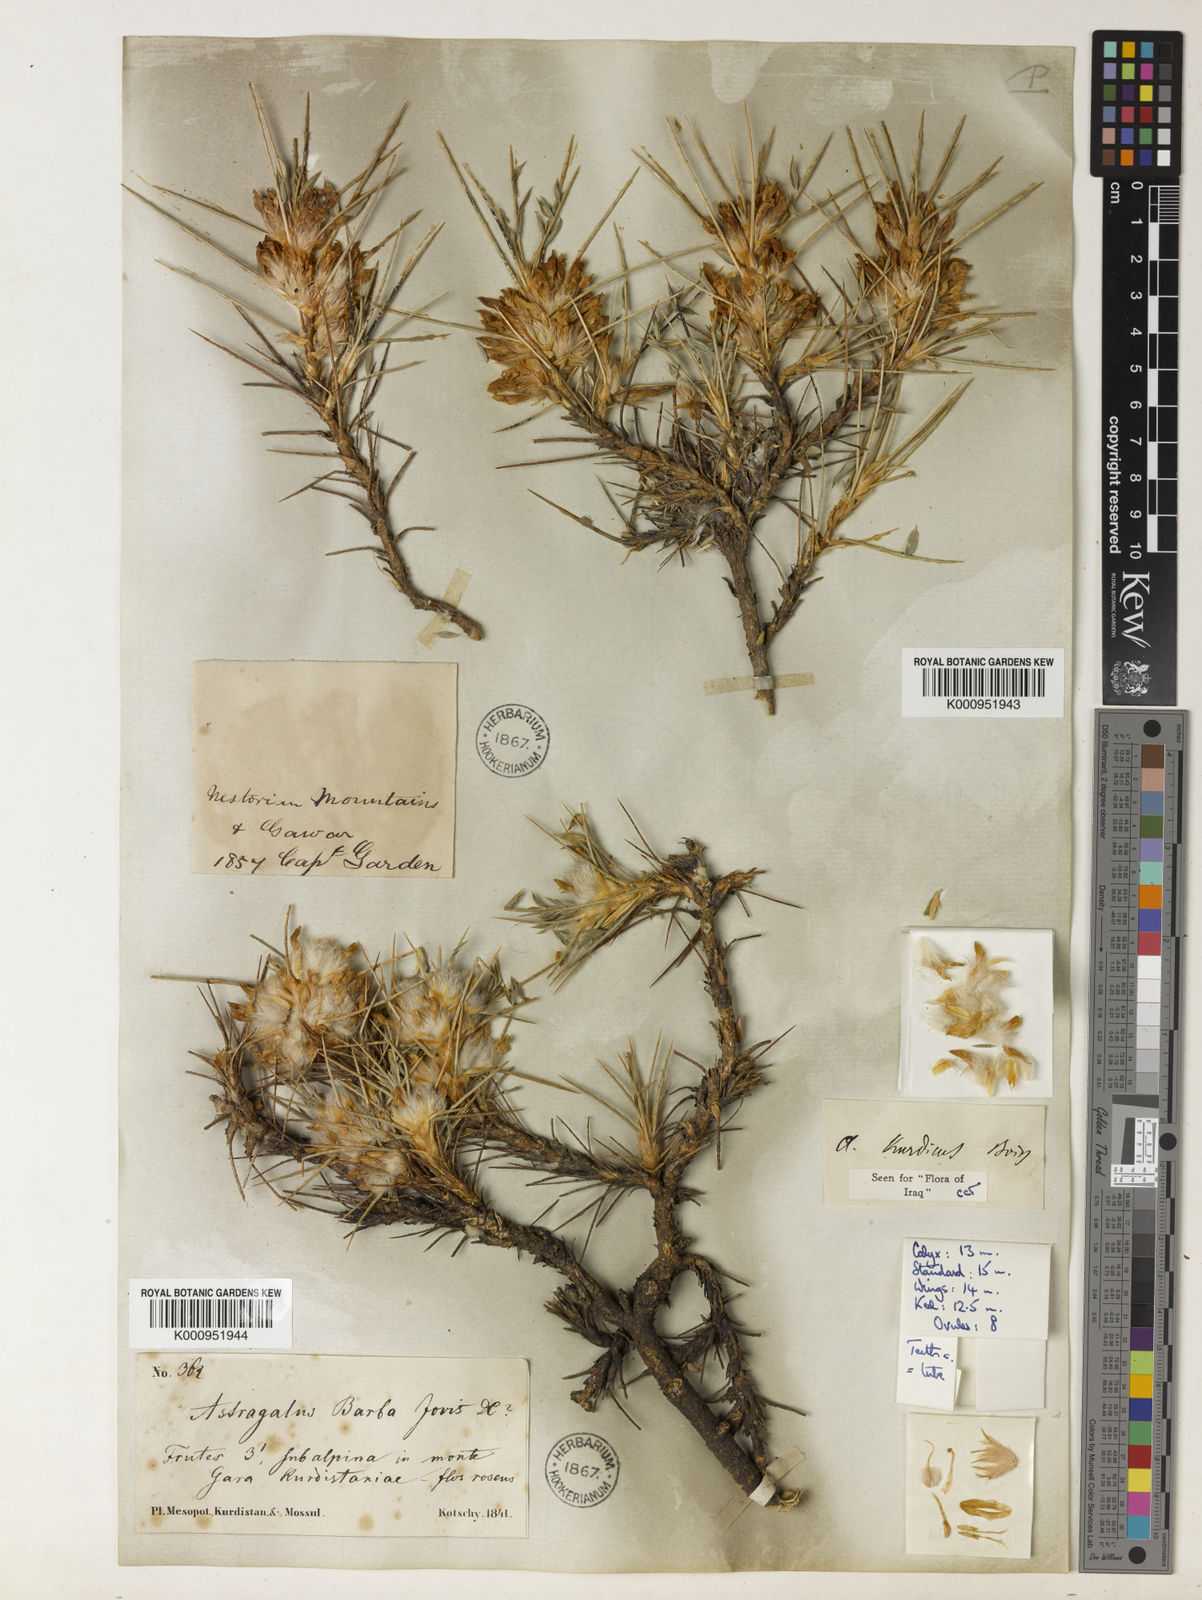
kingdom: Plantae
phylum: Tracheophyta
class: Magnoliopsida
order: Fabales
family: Fabaceae
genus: Astragalus
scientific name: Astragalus kurdicus
